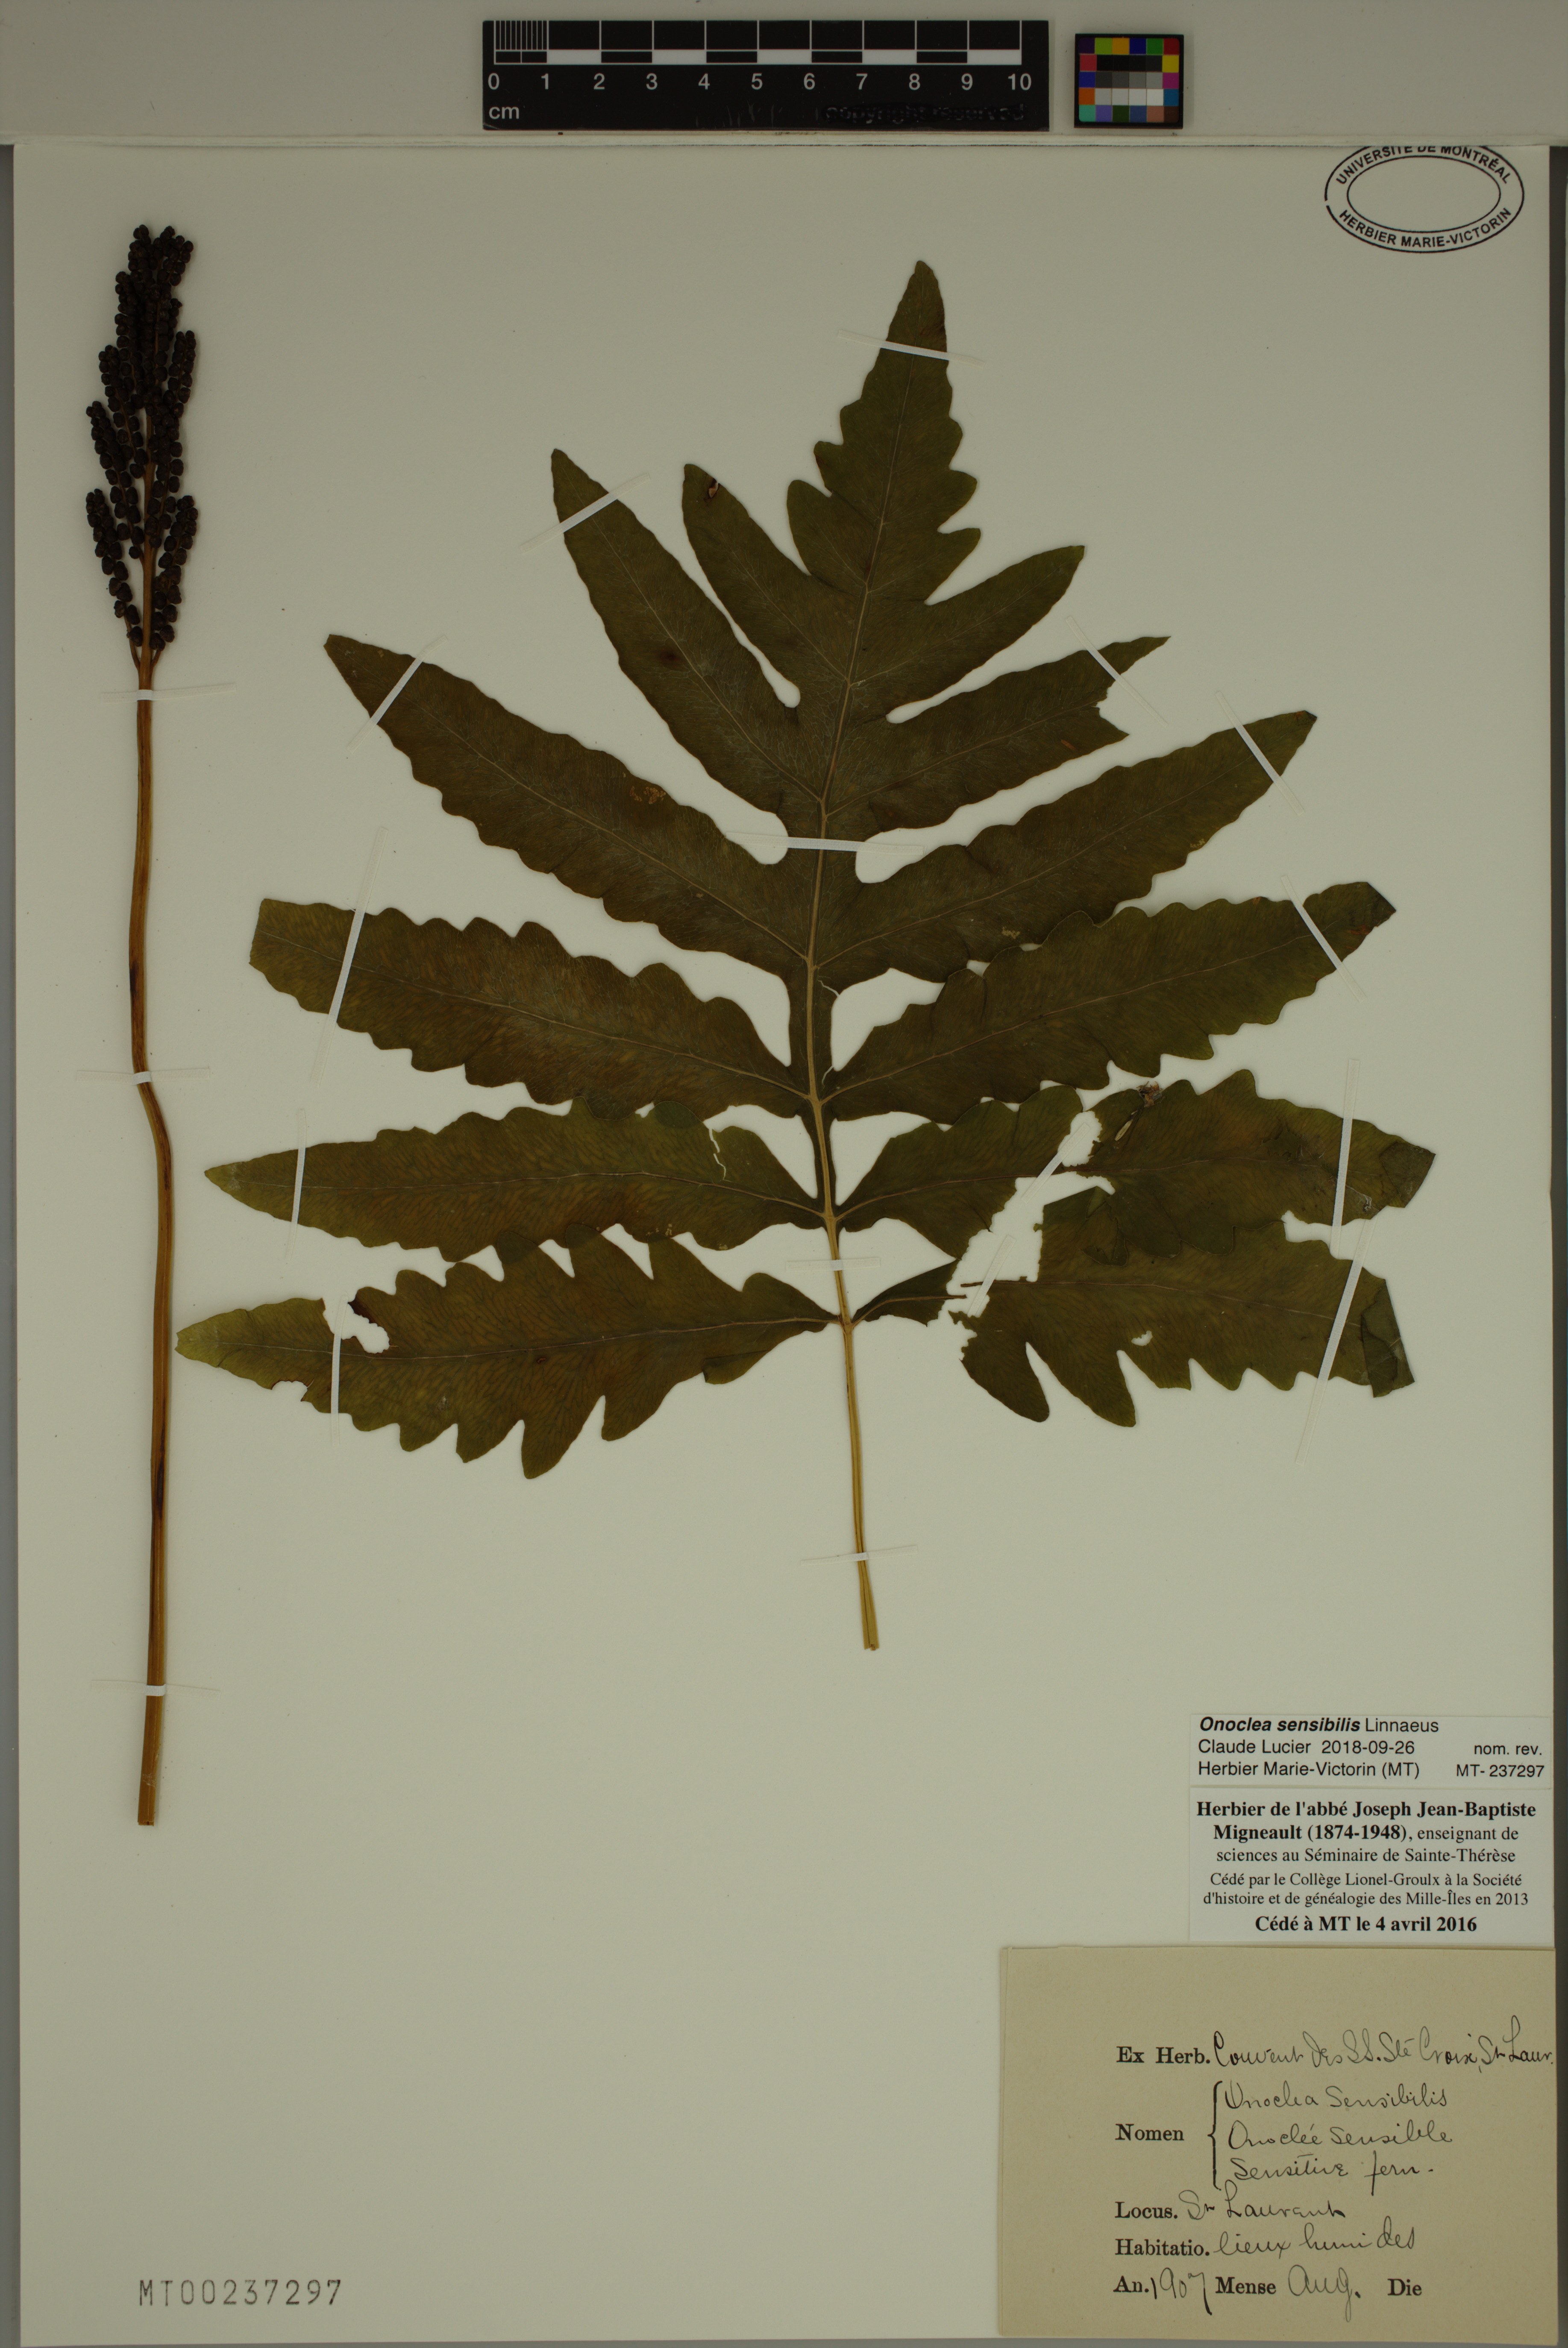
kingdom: Plantae
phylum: Tracheophyta
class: Polypodiopsida
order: Polypodiales
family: Onocleaceae
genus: Onoclea
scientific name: Onoclea sensibilis
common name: Sensitive fern
